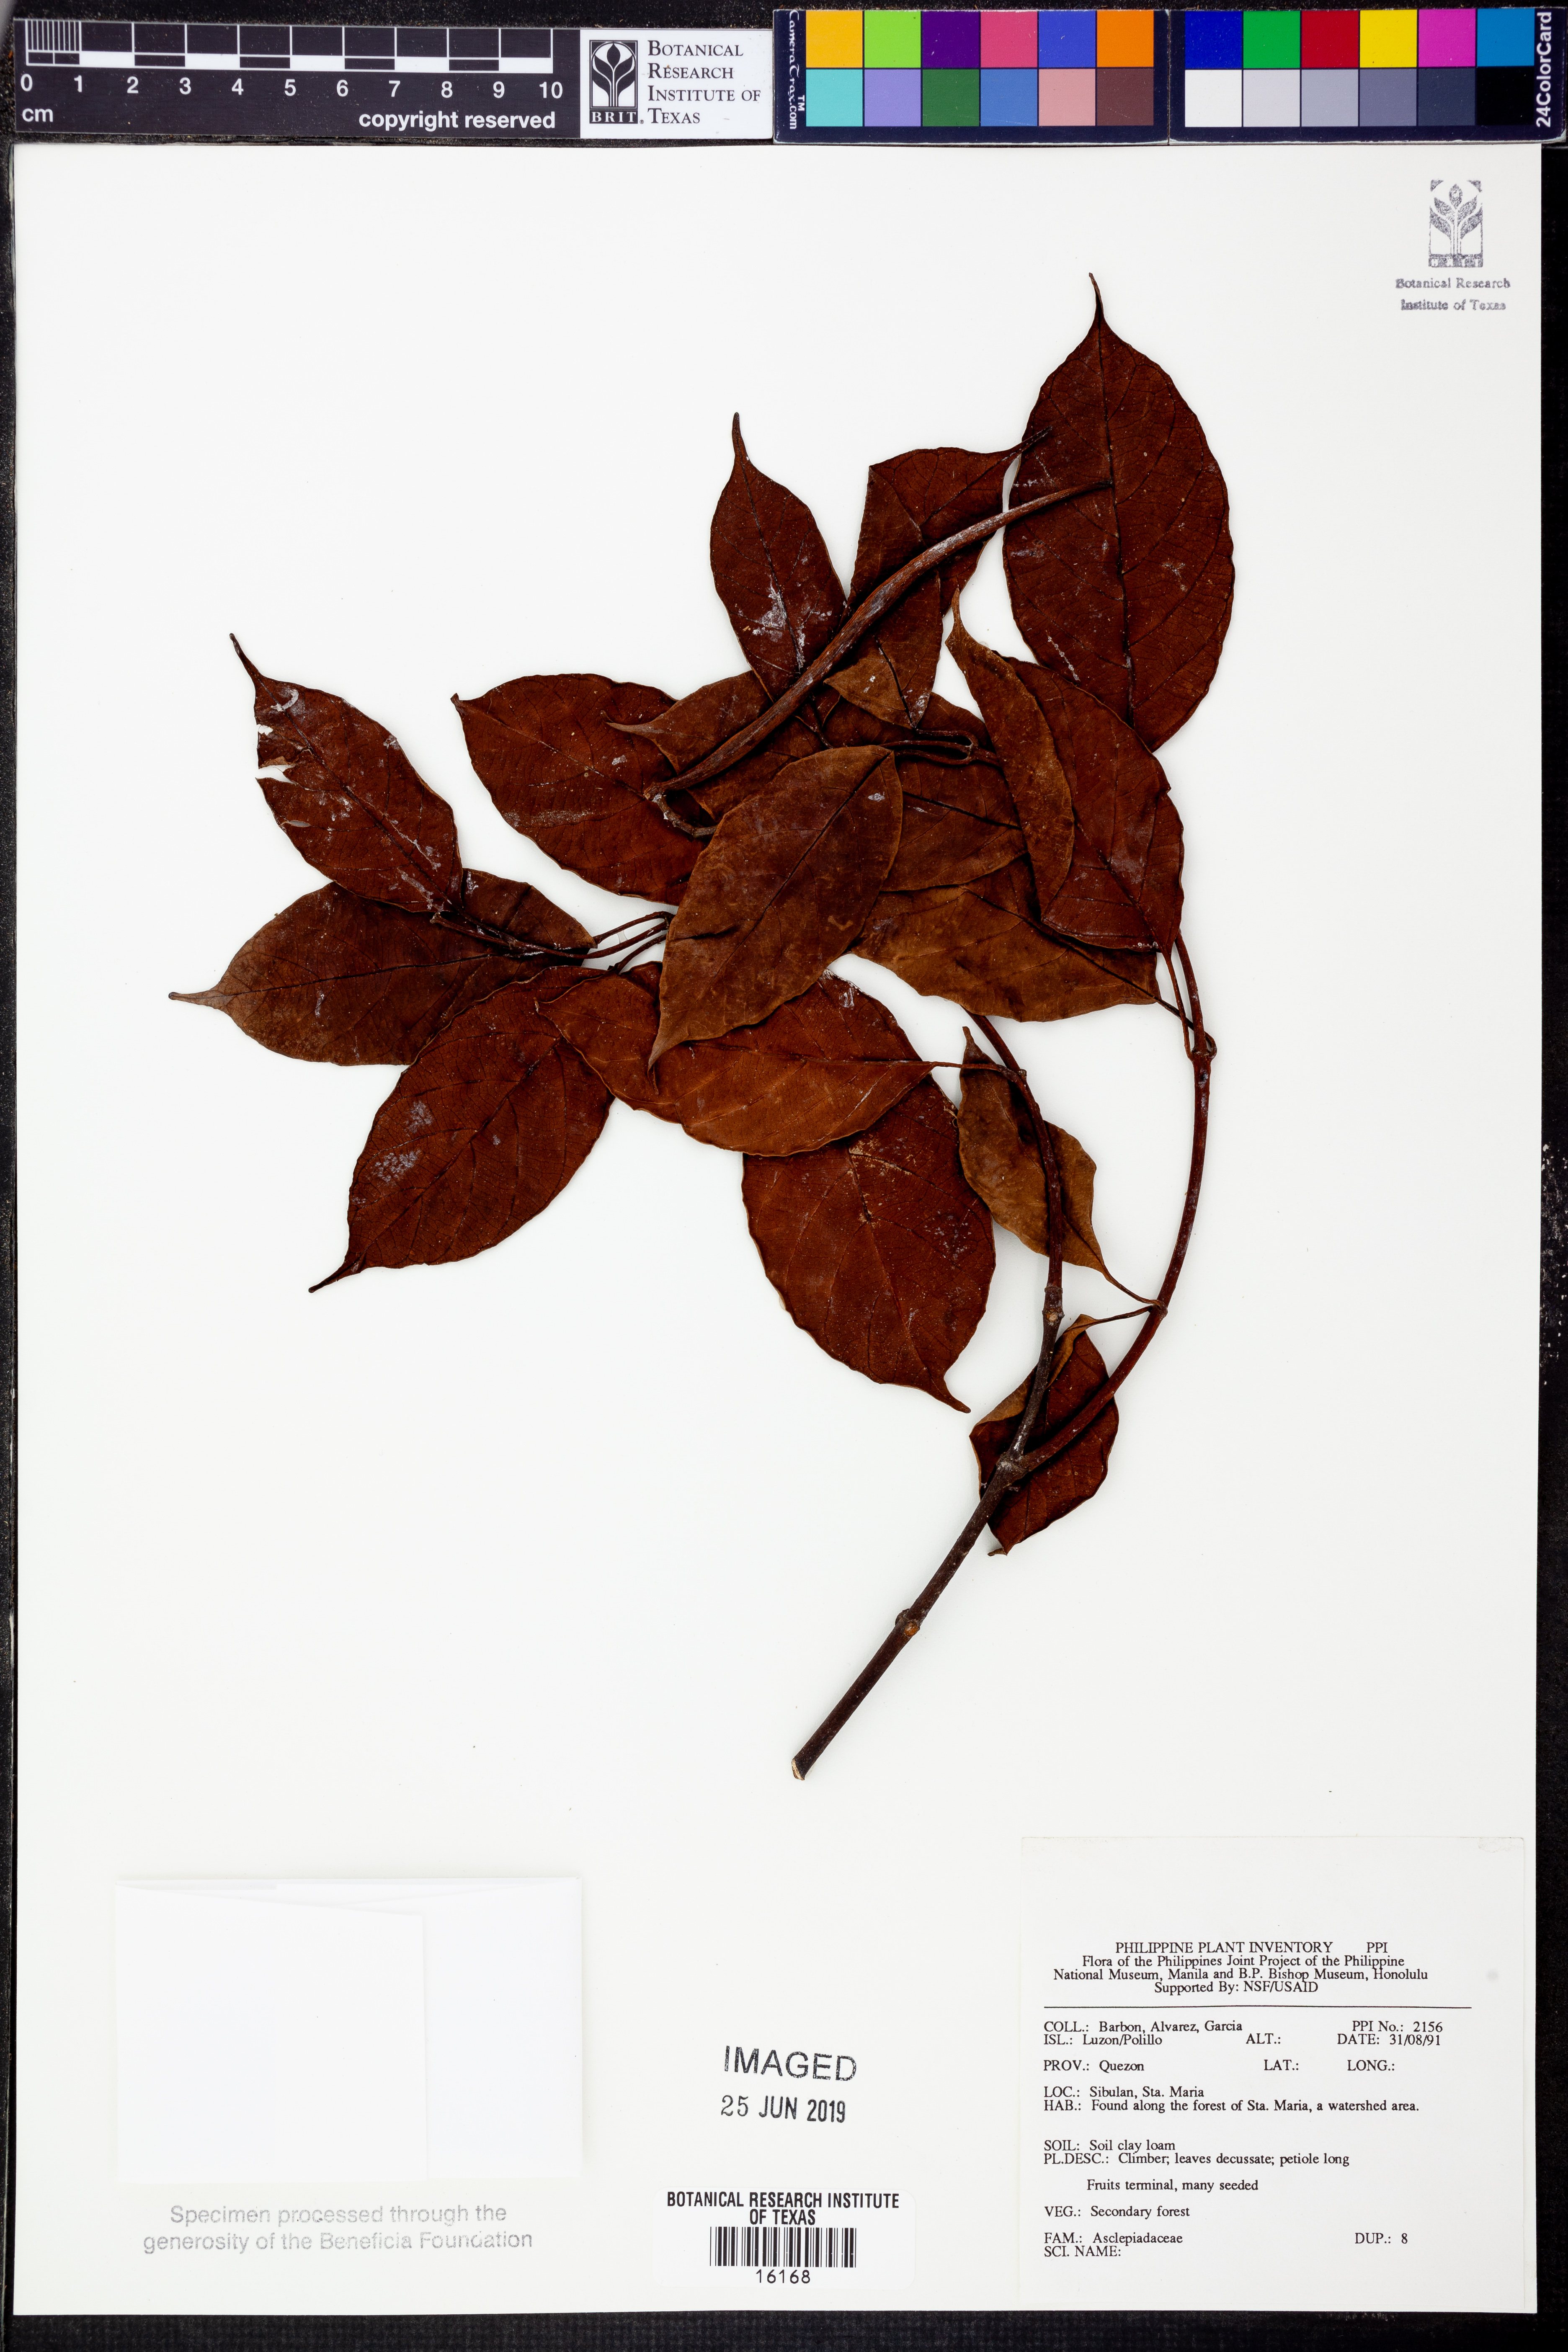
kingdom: Plantae
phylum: Tracheophyta
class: Magnoliopsida
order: Gentianales
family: Apocynaceae
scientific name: Apocynaceae
